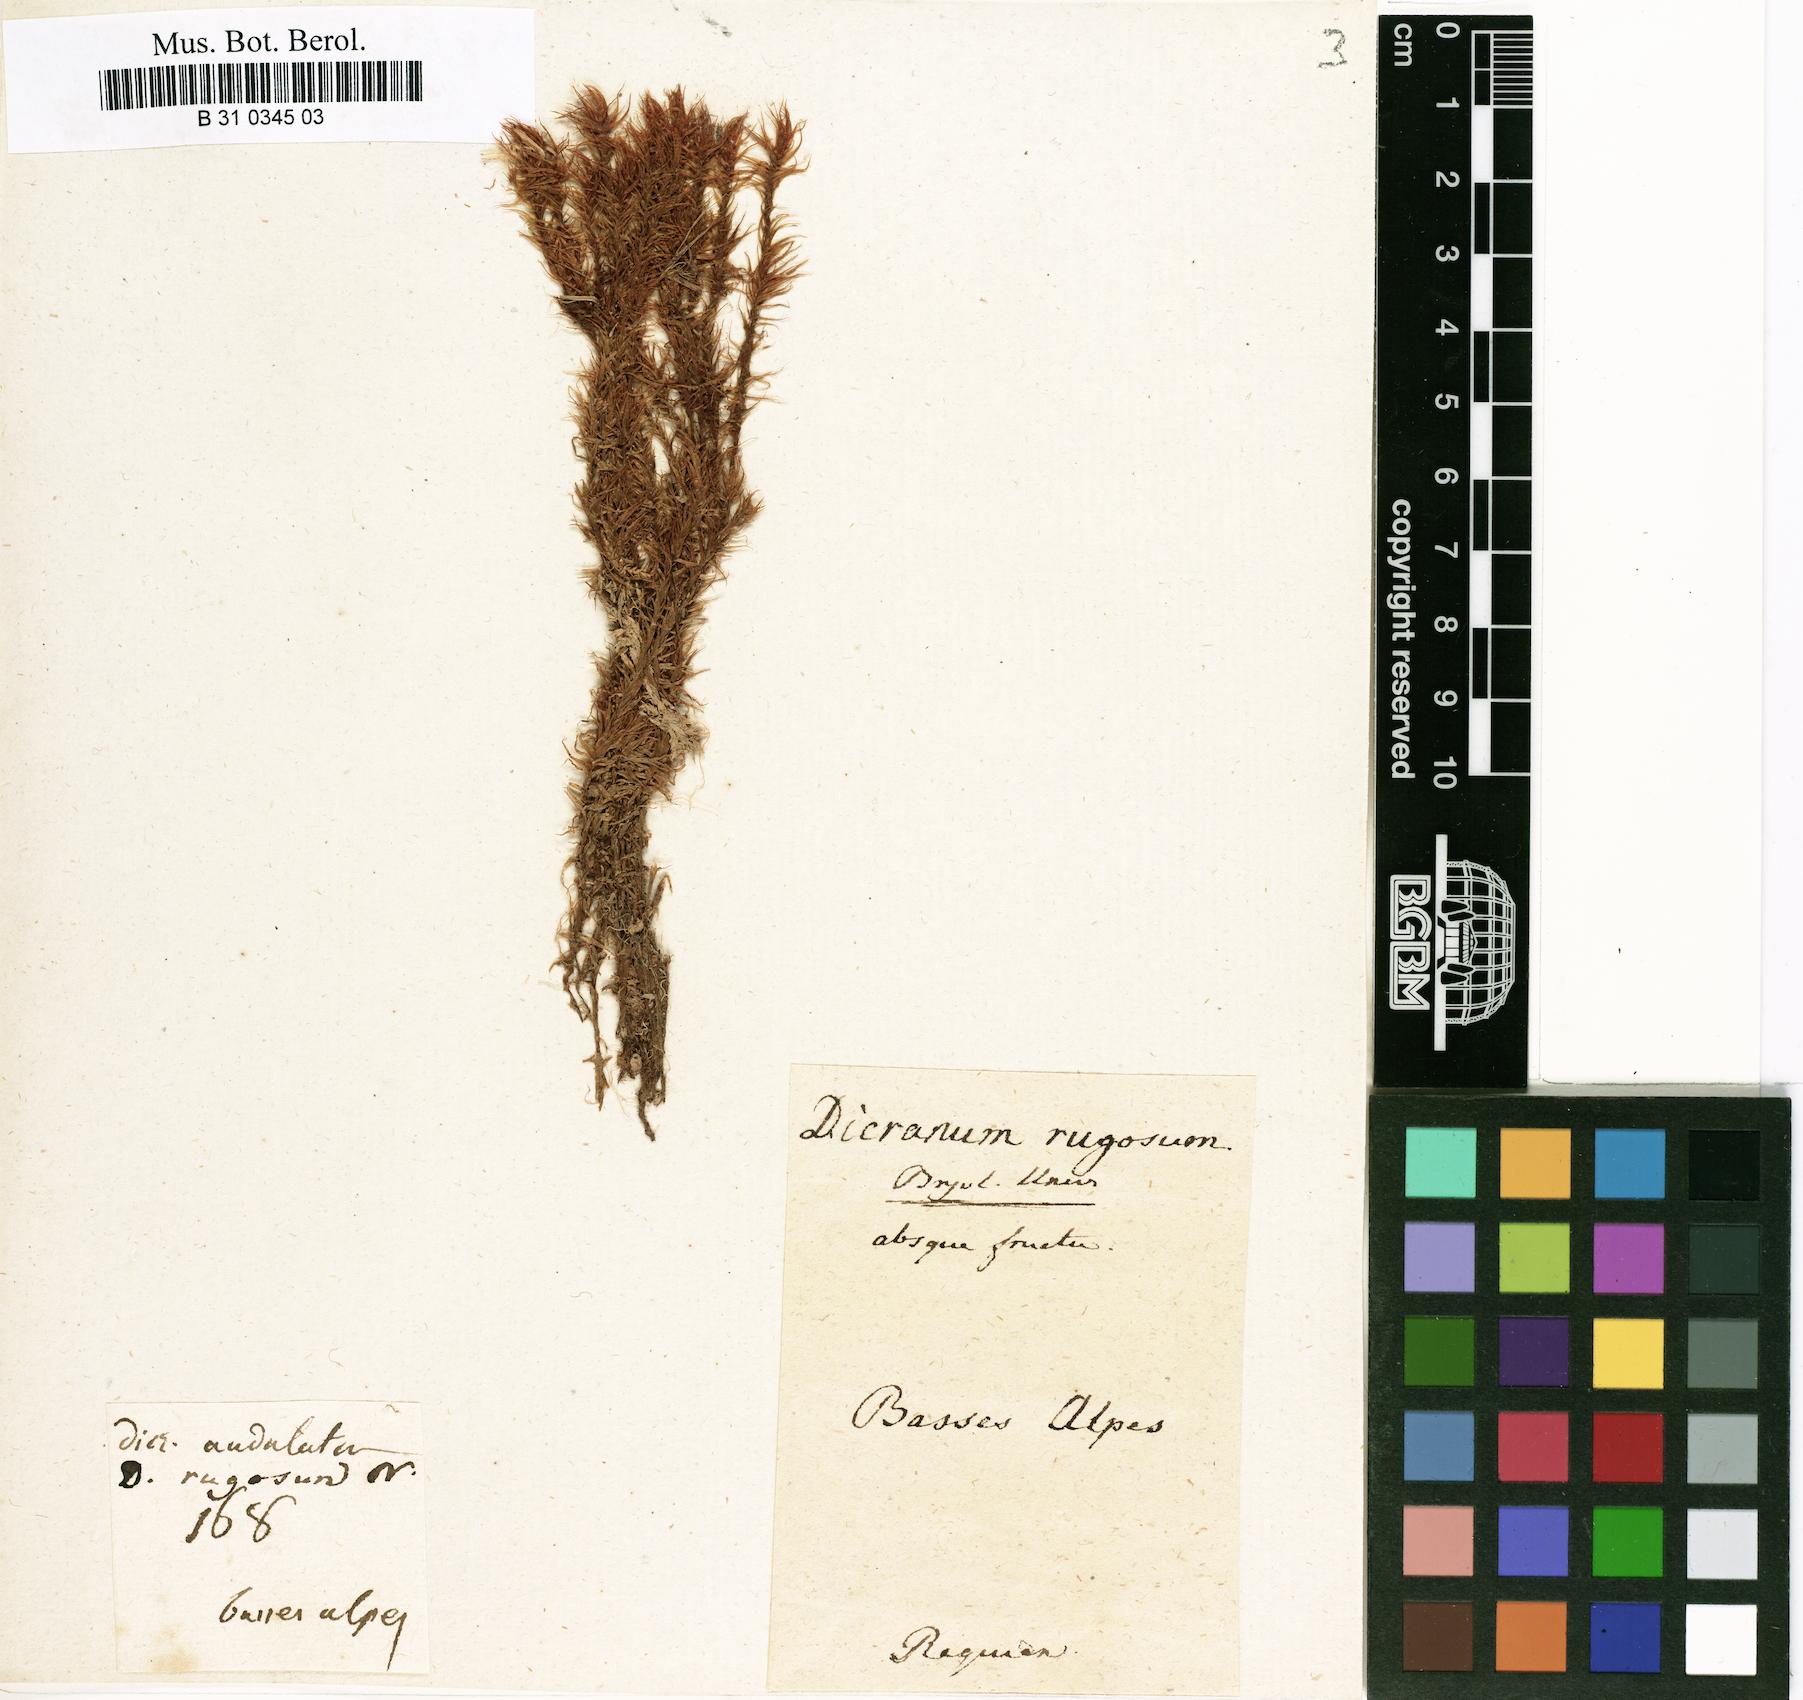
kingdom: Plantae
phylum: Bryophyta
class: Bryopsida
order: Dicranales
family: Dicranaceae
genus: Dicranum
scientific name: Dicranum polysetum
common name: Rugose fork-moss
